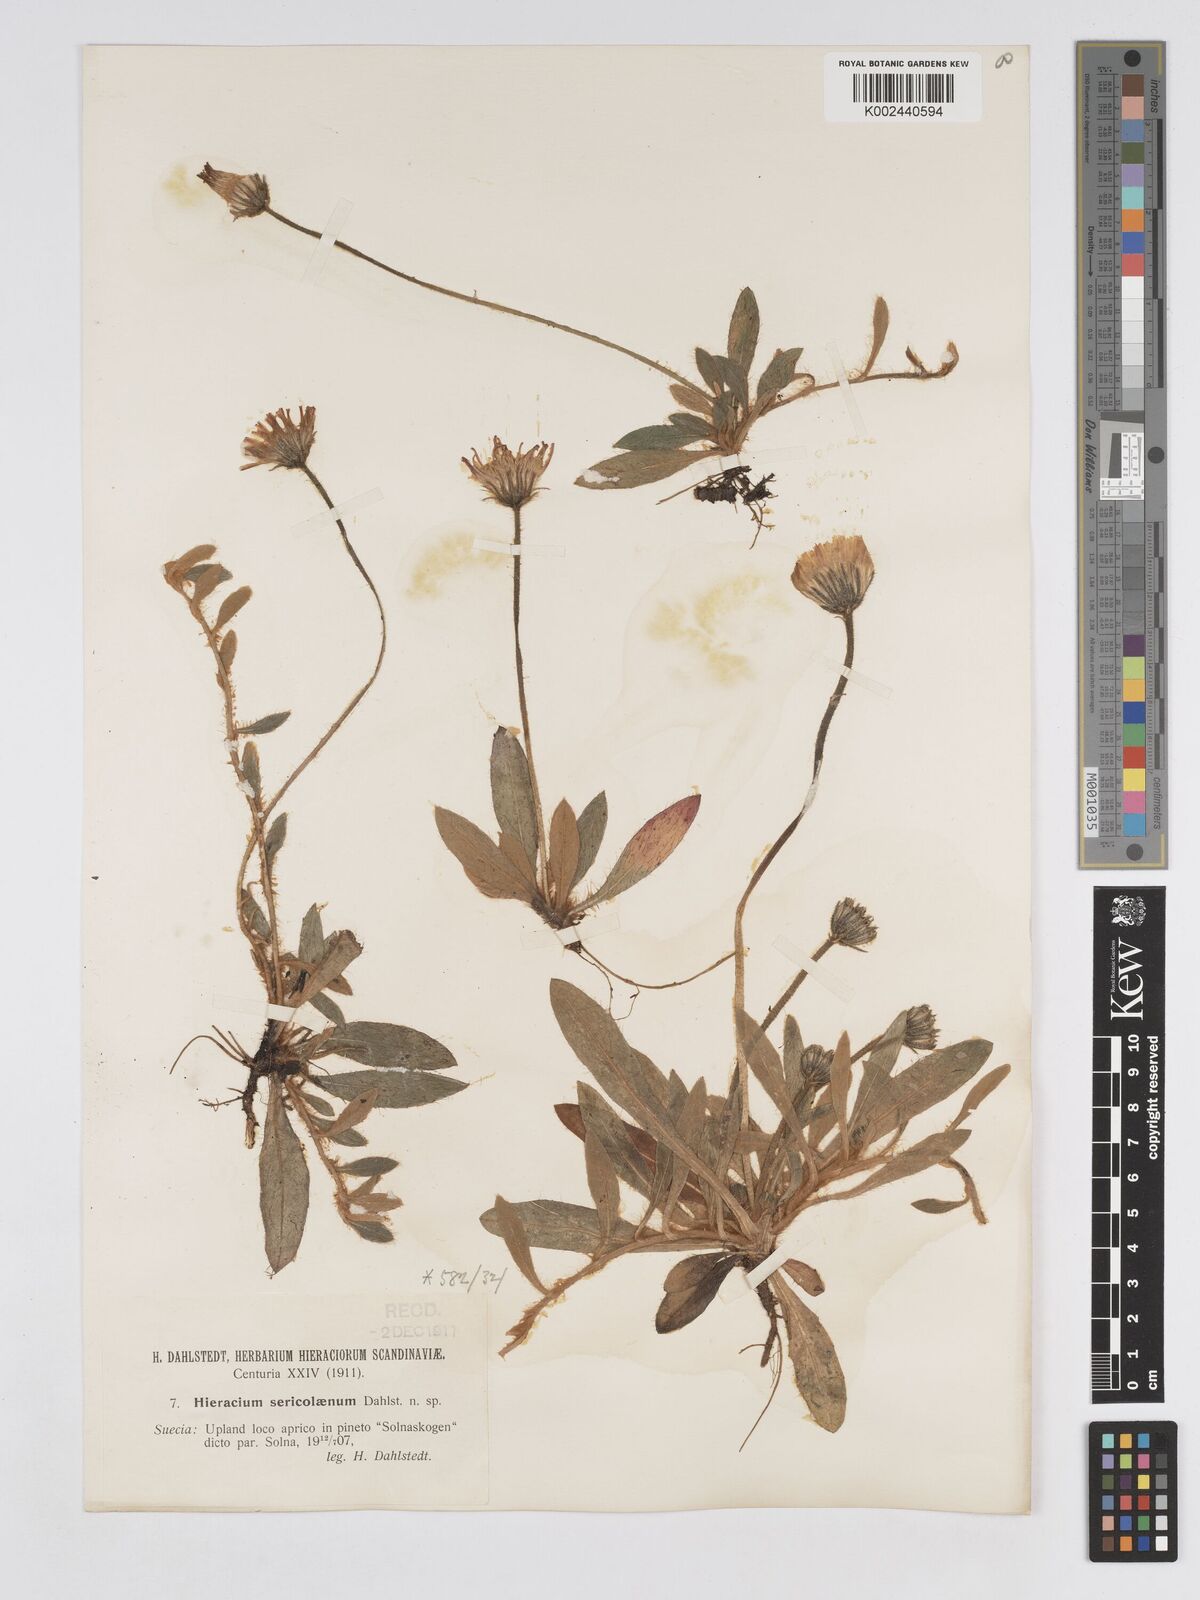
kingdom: Plantae
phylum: Tracheophyta
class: Magnoliopsida
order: Asterales
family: Asteraceae
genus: Pilosella
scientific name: Pilosella longisquama
